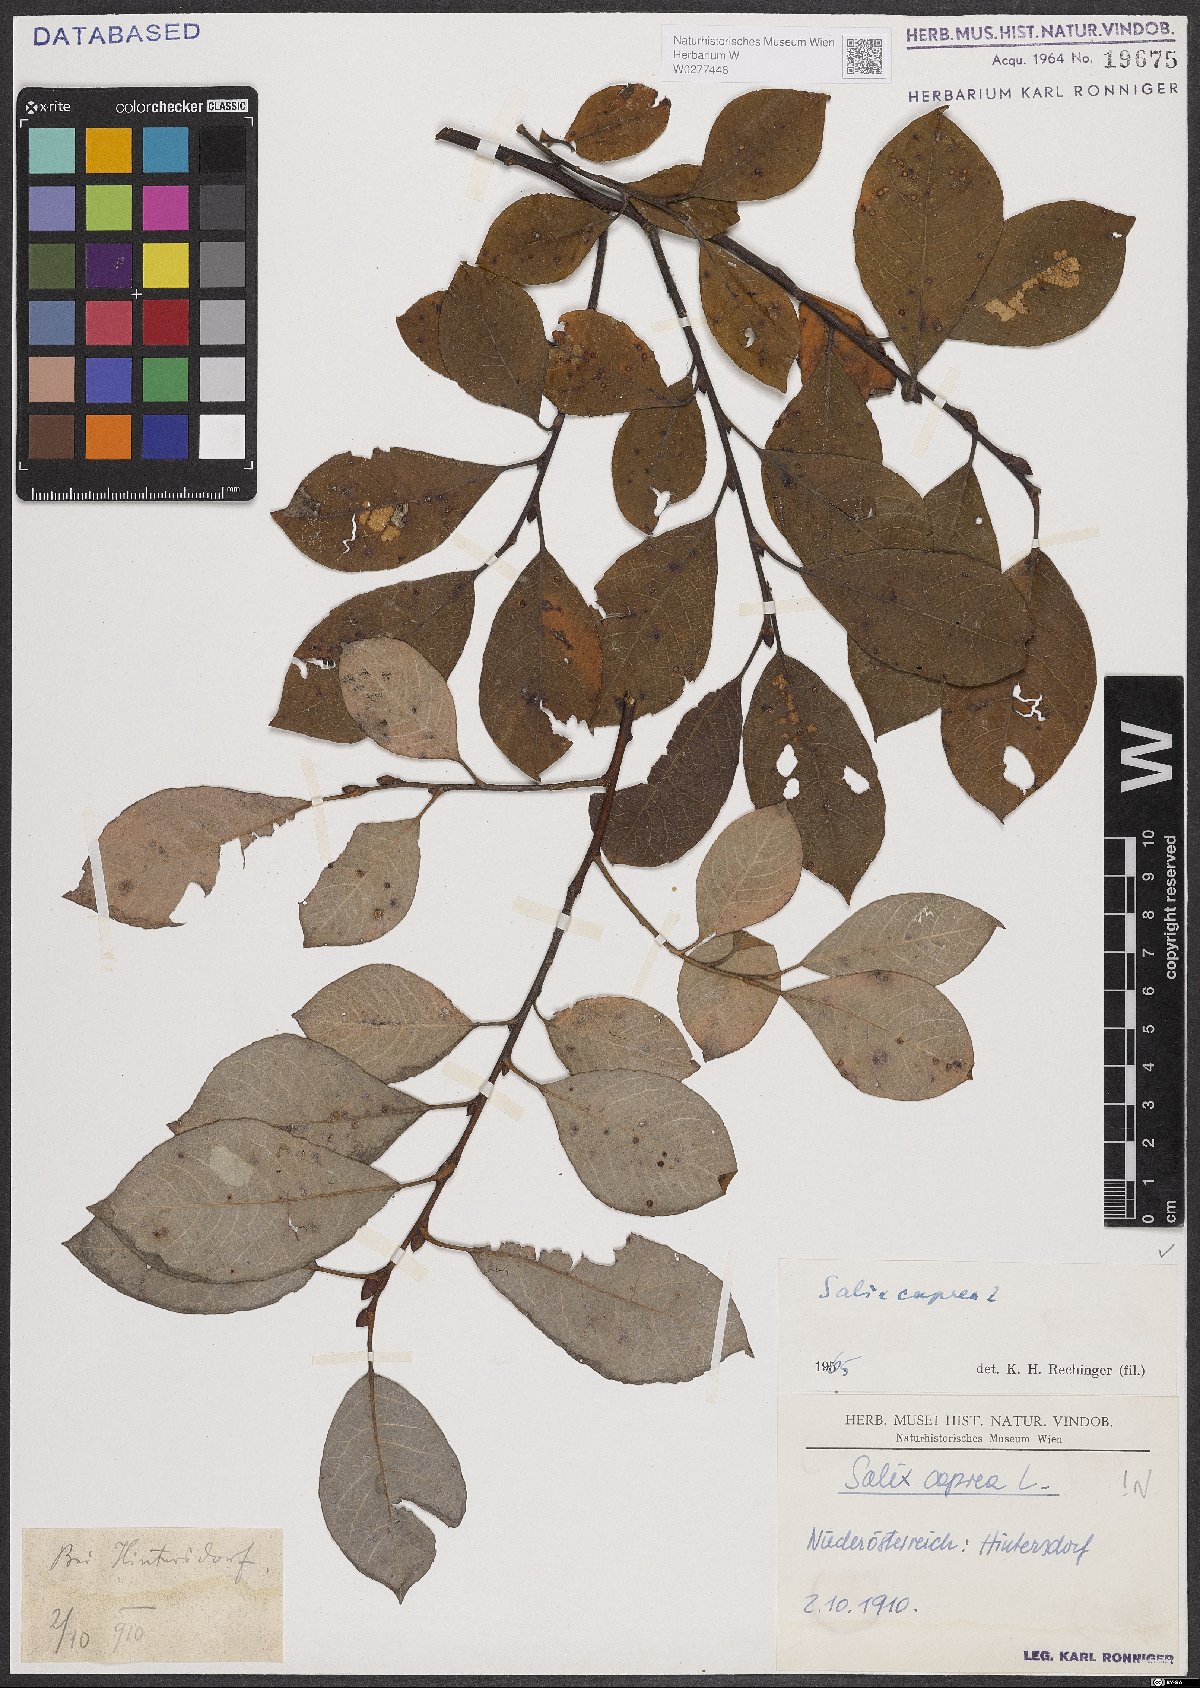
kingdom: Plantae
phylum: Tracheophyta
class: Magnoliopsida
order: Malpighiales
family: Salicaceae
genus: Salix
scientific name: Salix caprea
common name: Goat willow
